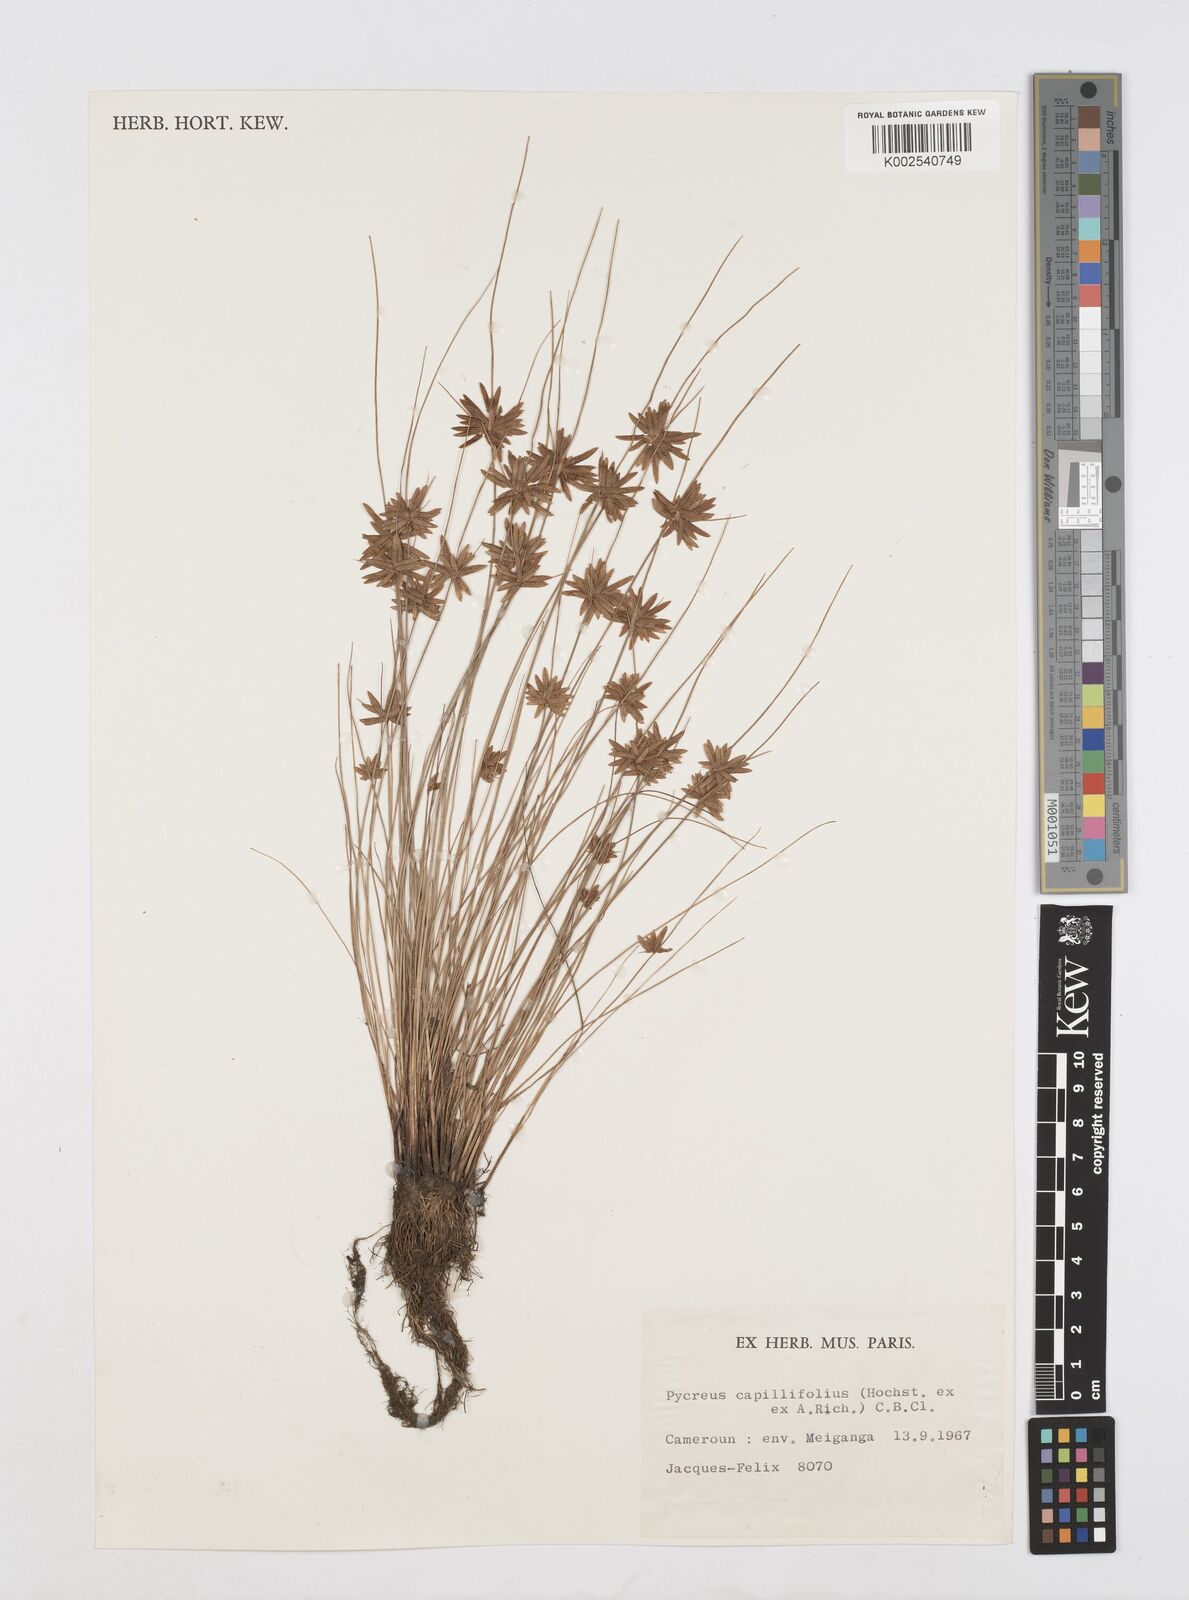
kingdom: Plantae
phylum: Tracheophyta
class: Liliopsida
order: Poales
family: Cyperaceae
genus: Cyperus
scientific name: Cyperus capillifolius
